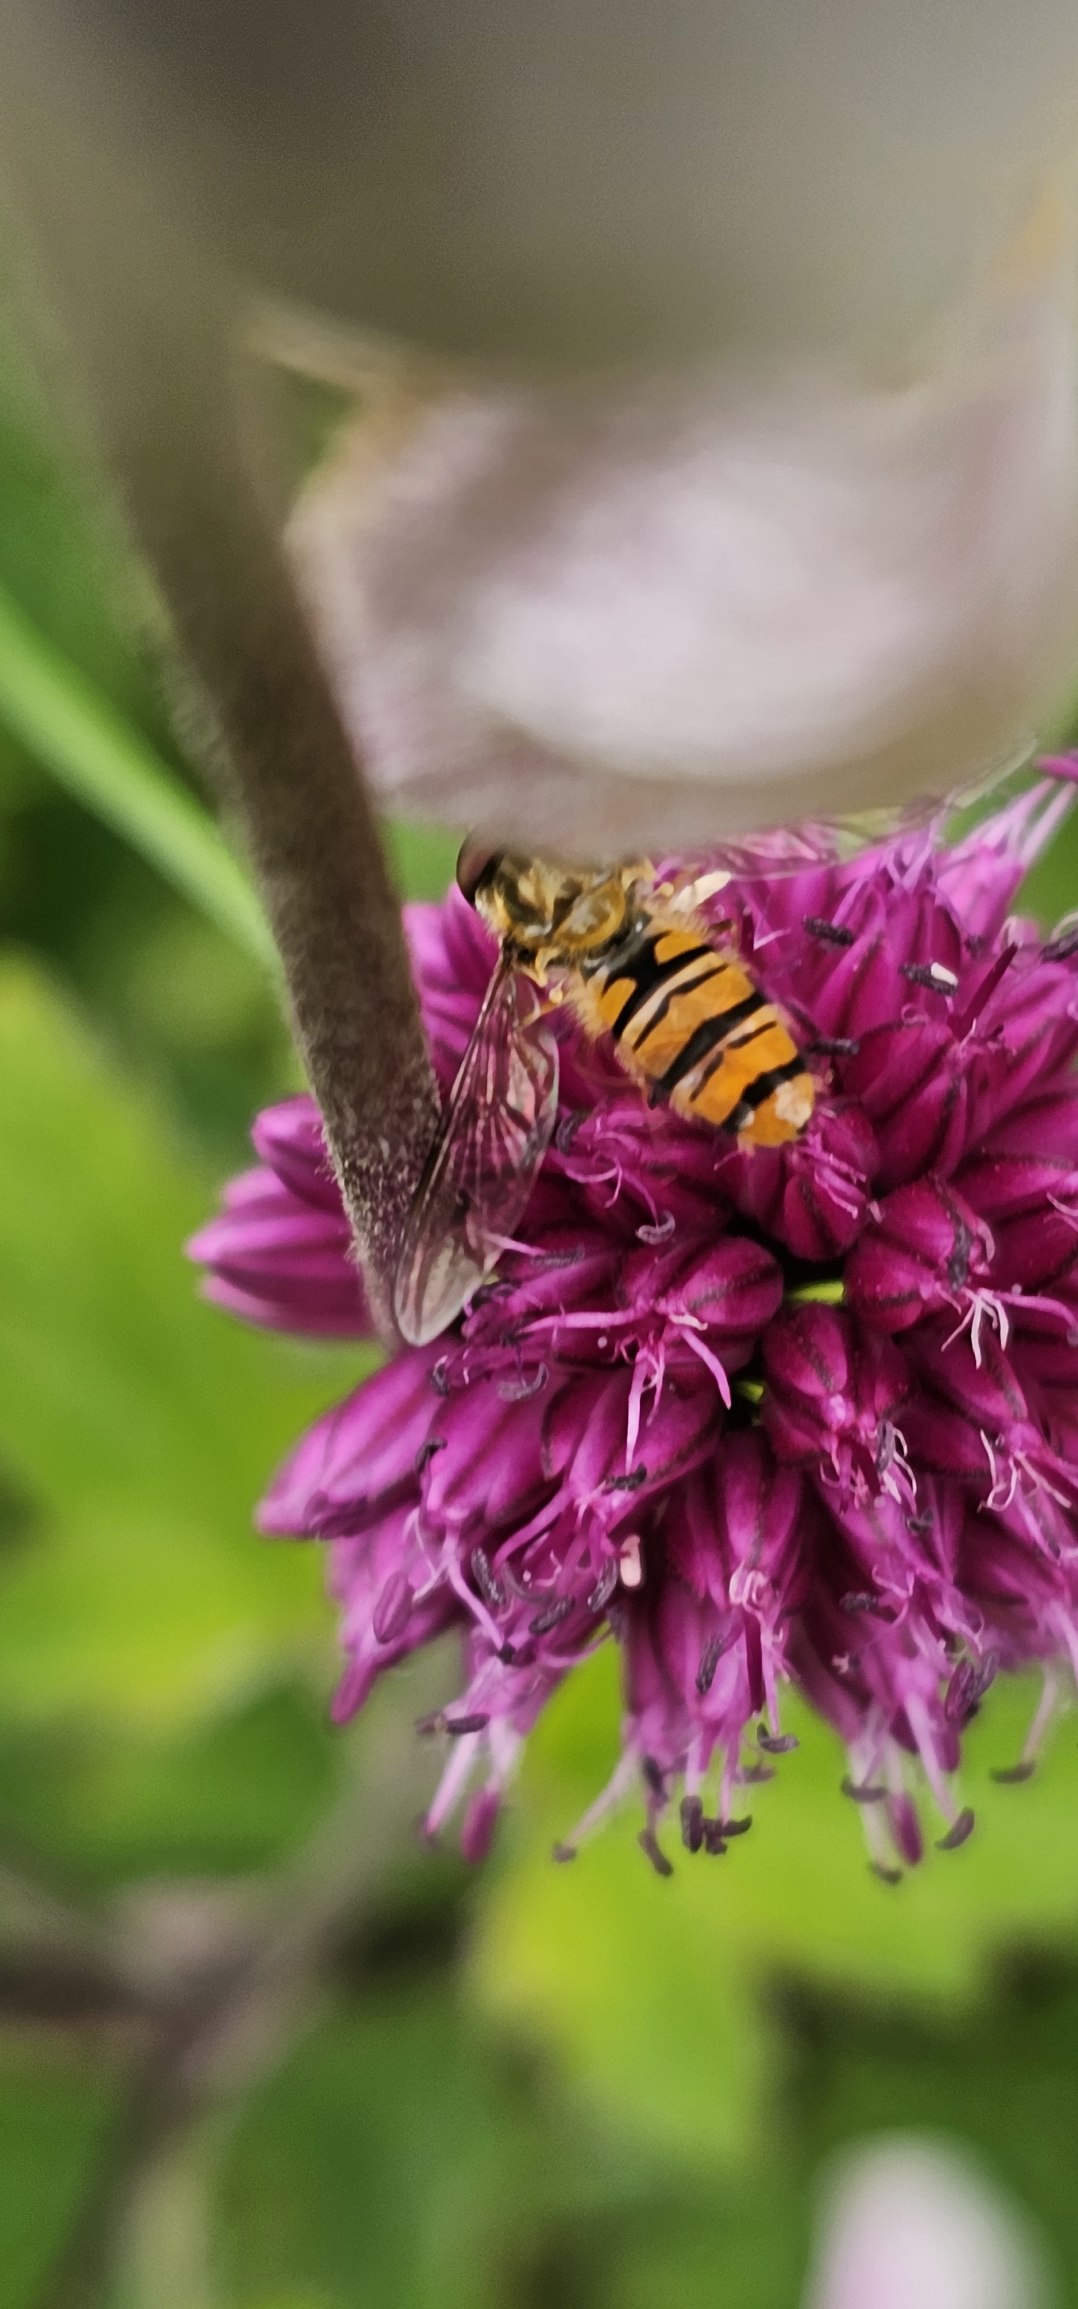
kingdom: Animalia
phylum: Arthropoda
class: Insecta
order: Diptera
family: Syrphidae
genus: Episyrphus
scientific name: Episyrphus balteatus
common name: Dobbeltbåndet svirreflue
